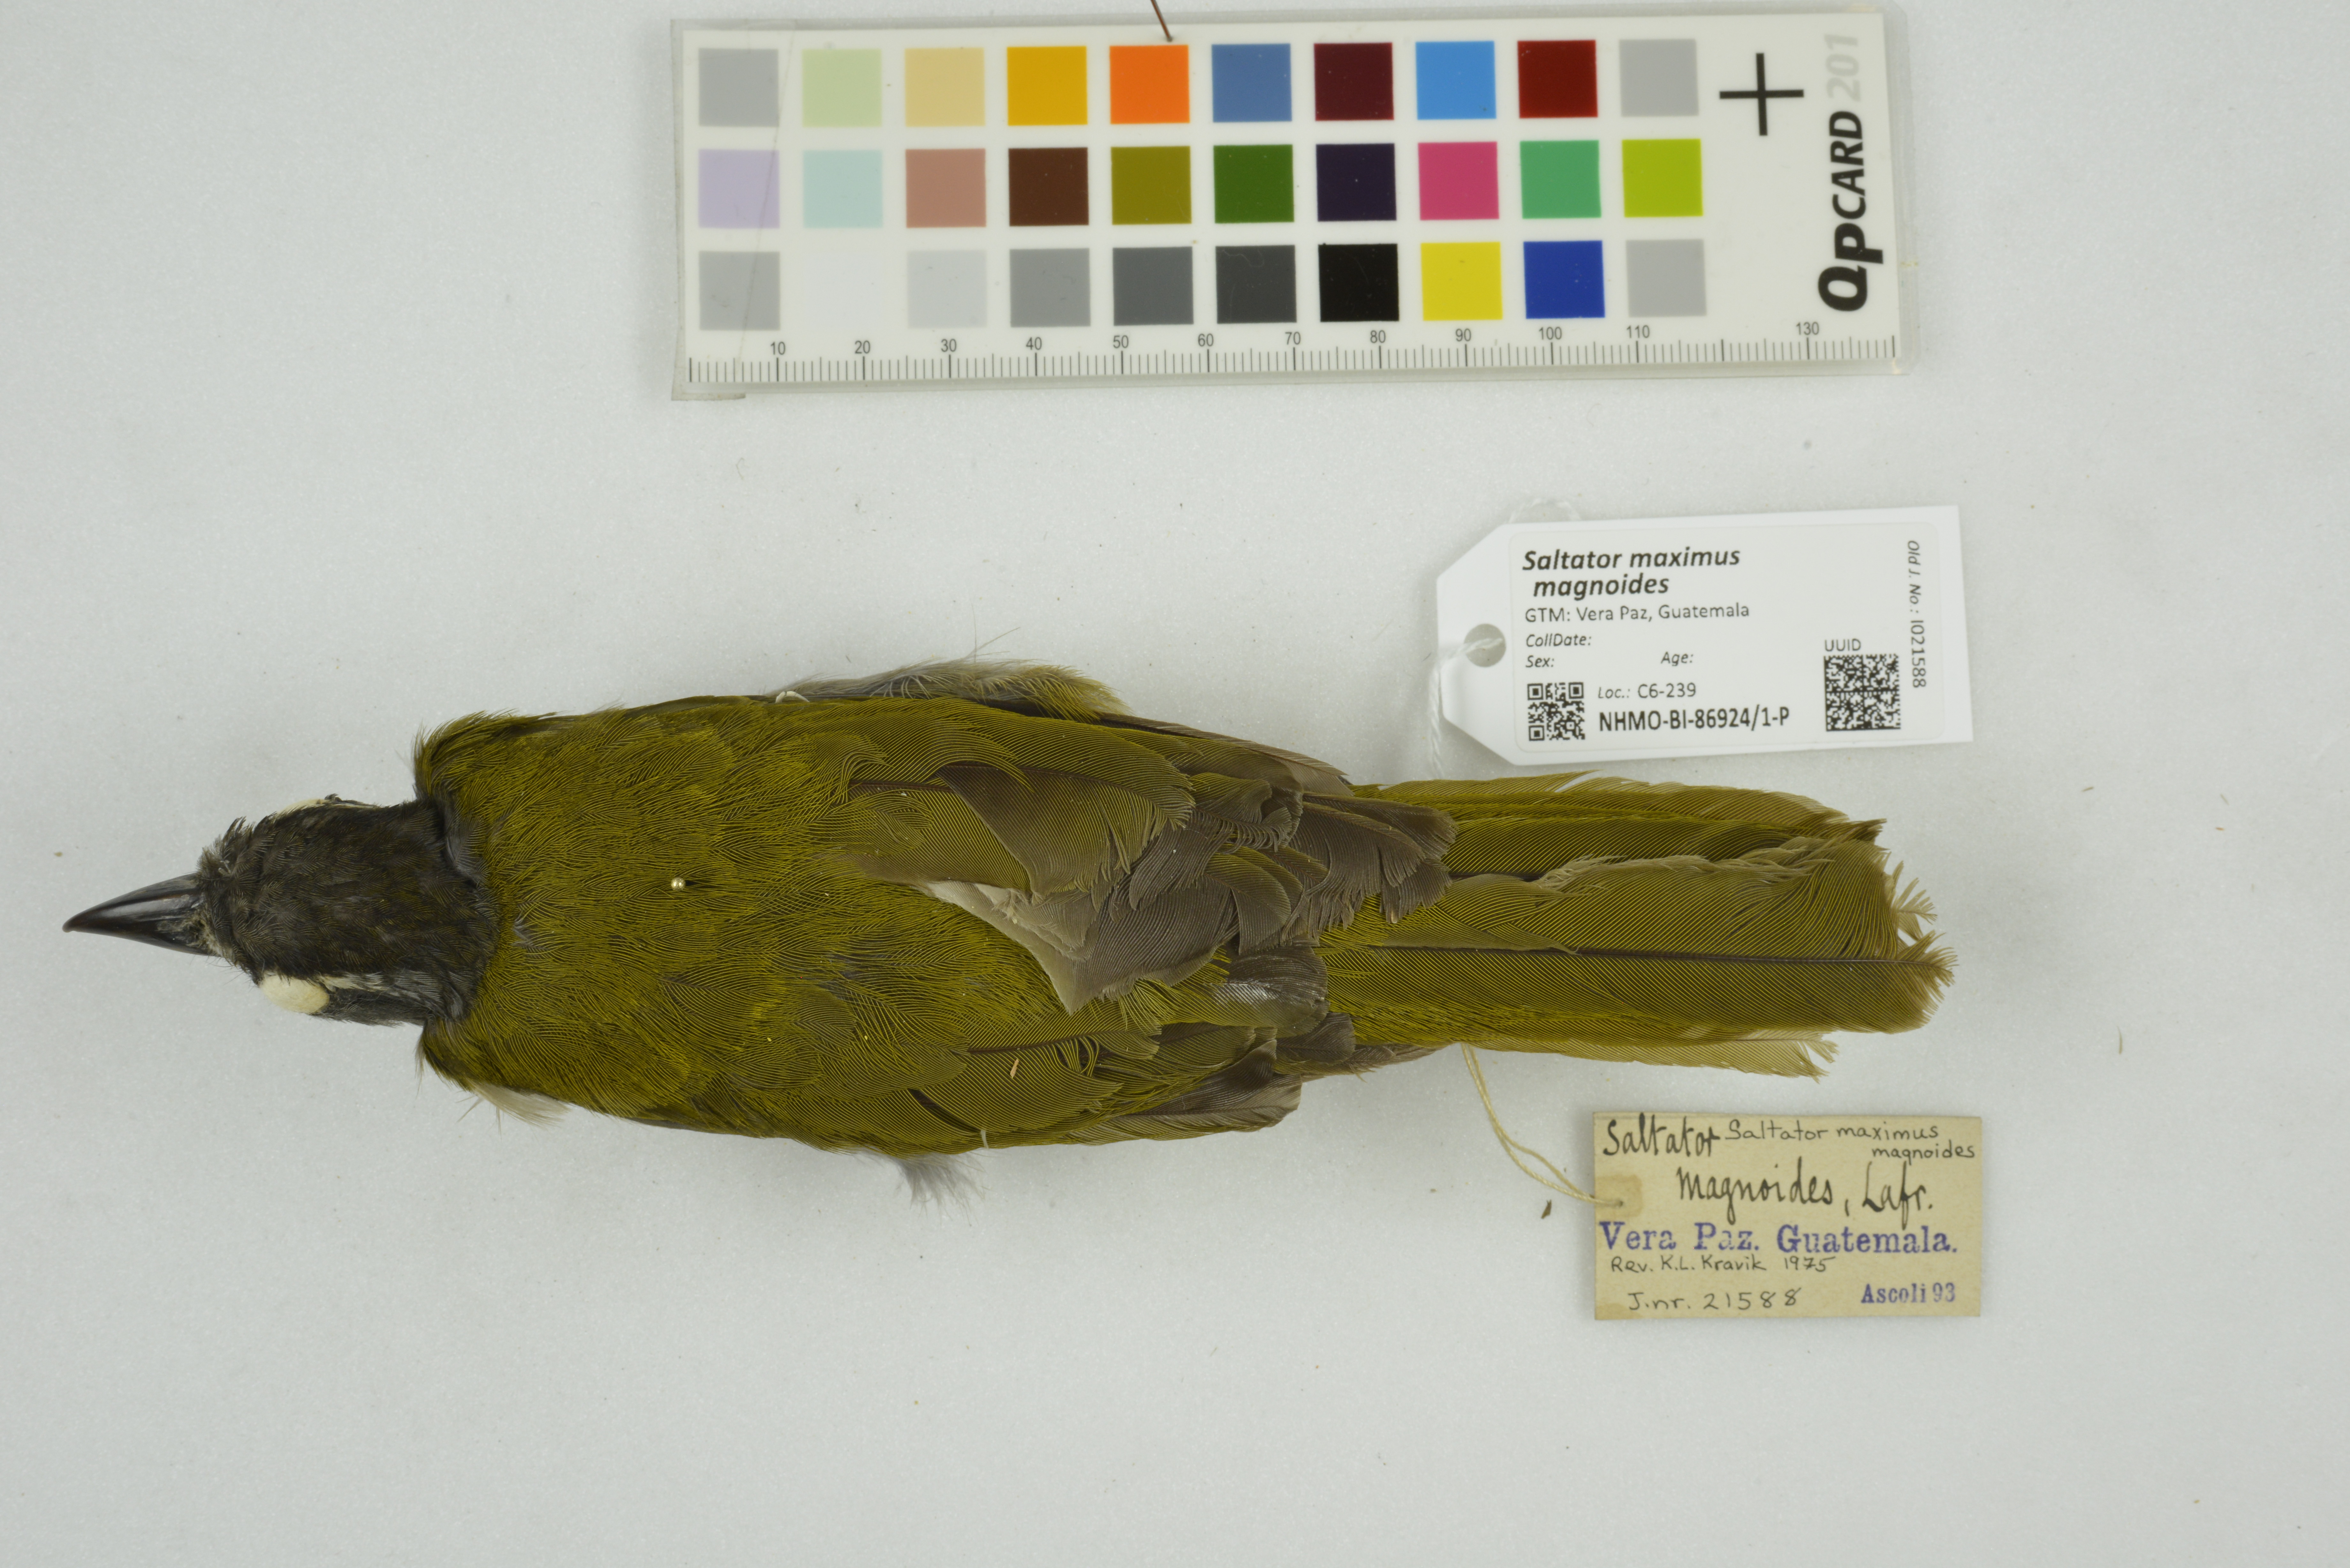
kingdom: Animalia
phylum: Chordata
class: Aves
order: Passeriformes
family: Thraupidae
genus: Saltator
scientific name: Saltator maximus
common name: Buff-throated saltator
